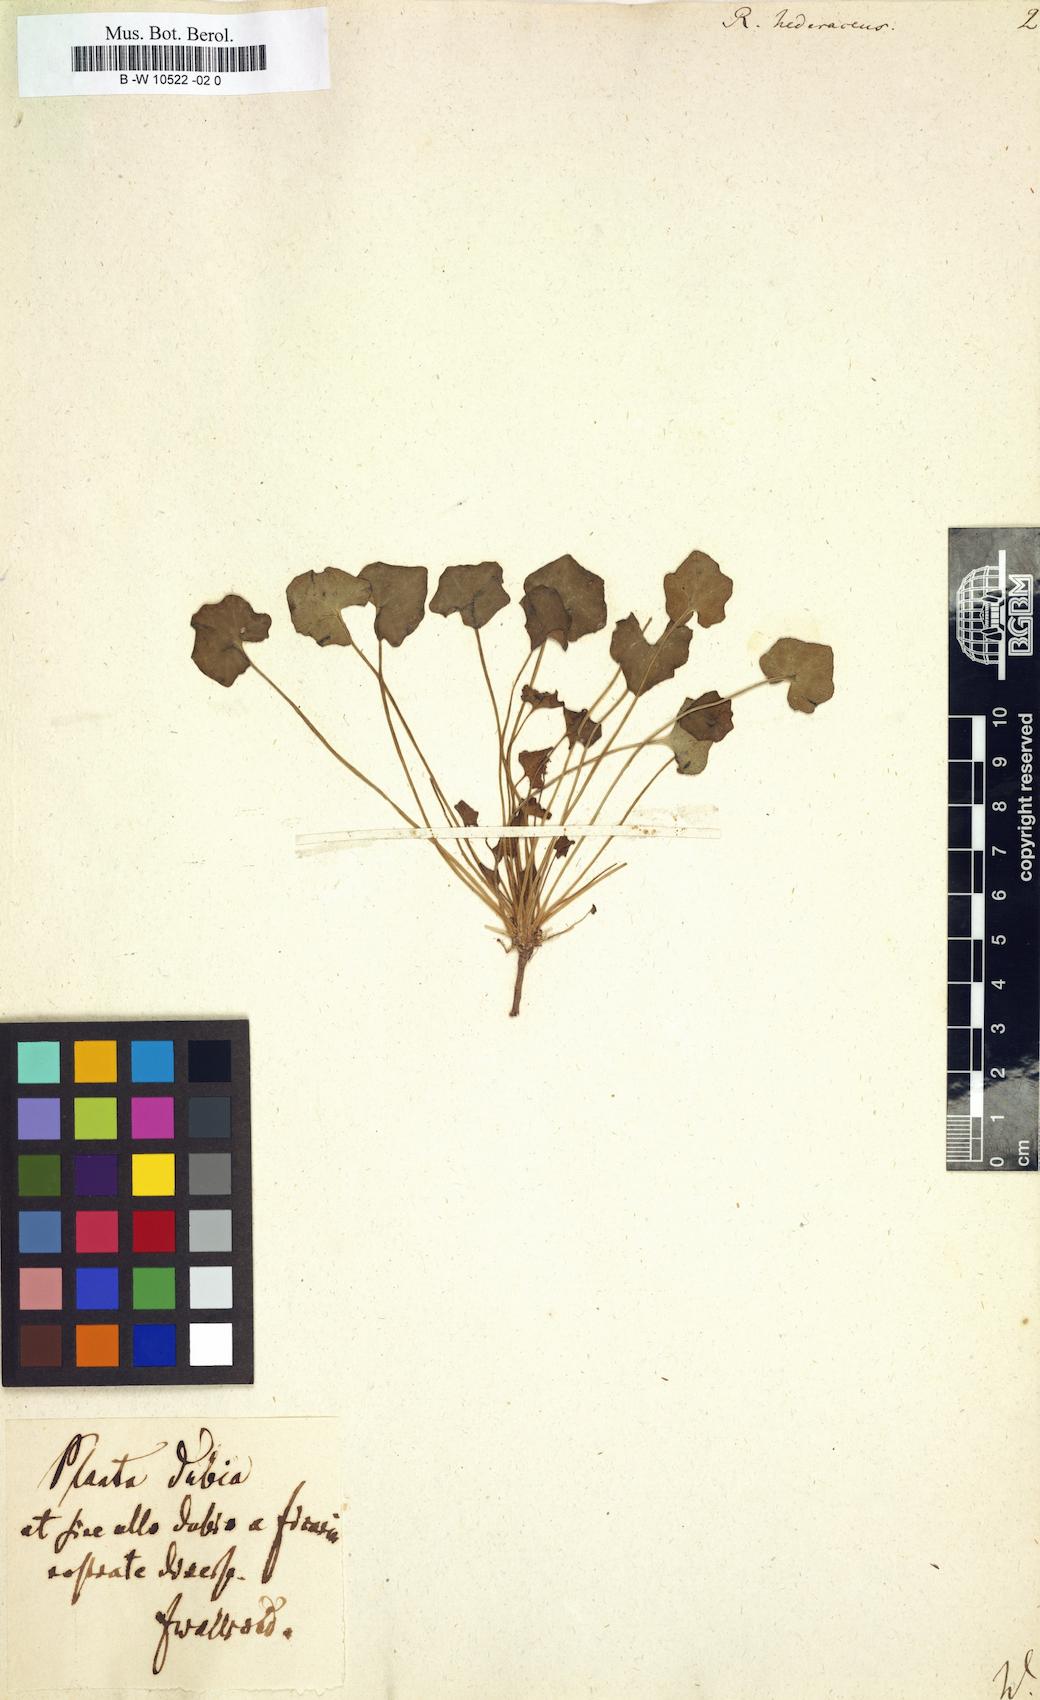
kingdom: Plantae
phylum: Tracheophyta
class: Magnoliopsida
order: Ranunculales
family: Ranunculaceae
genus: Ranunculus
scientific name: Ranunculus hederaceus
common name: Ivy-leaved crowfoot
